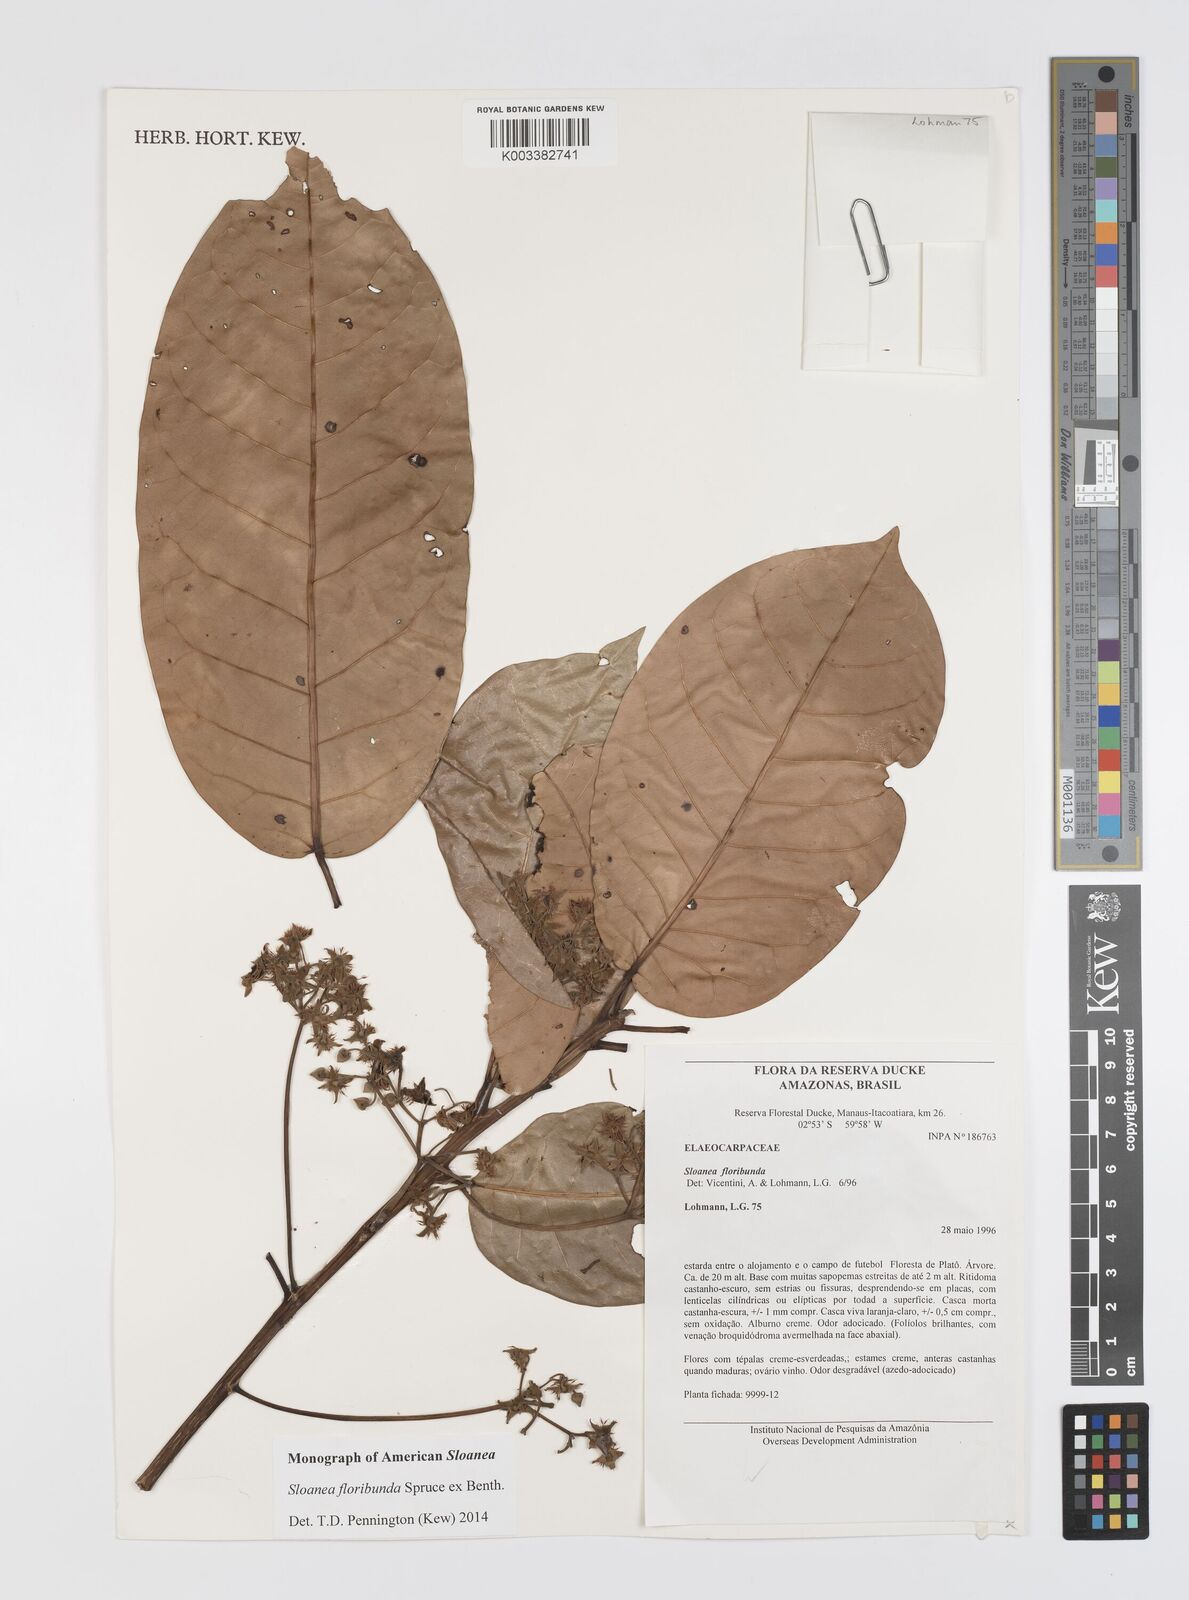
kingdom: Plantae
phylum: Tracheophyta
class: Magnoliopsida
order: Oxalidales
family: Elaeocarpaceae
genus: Sloanea
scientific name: Sloanea floribunda
